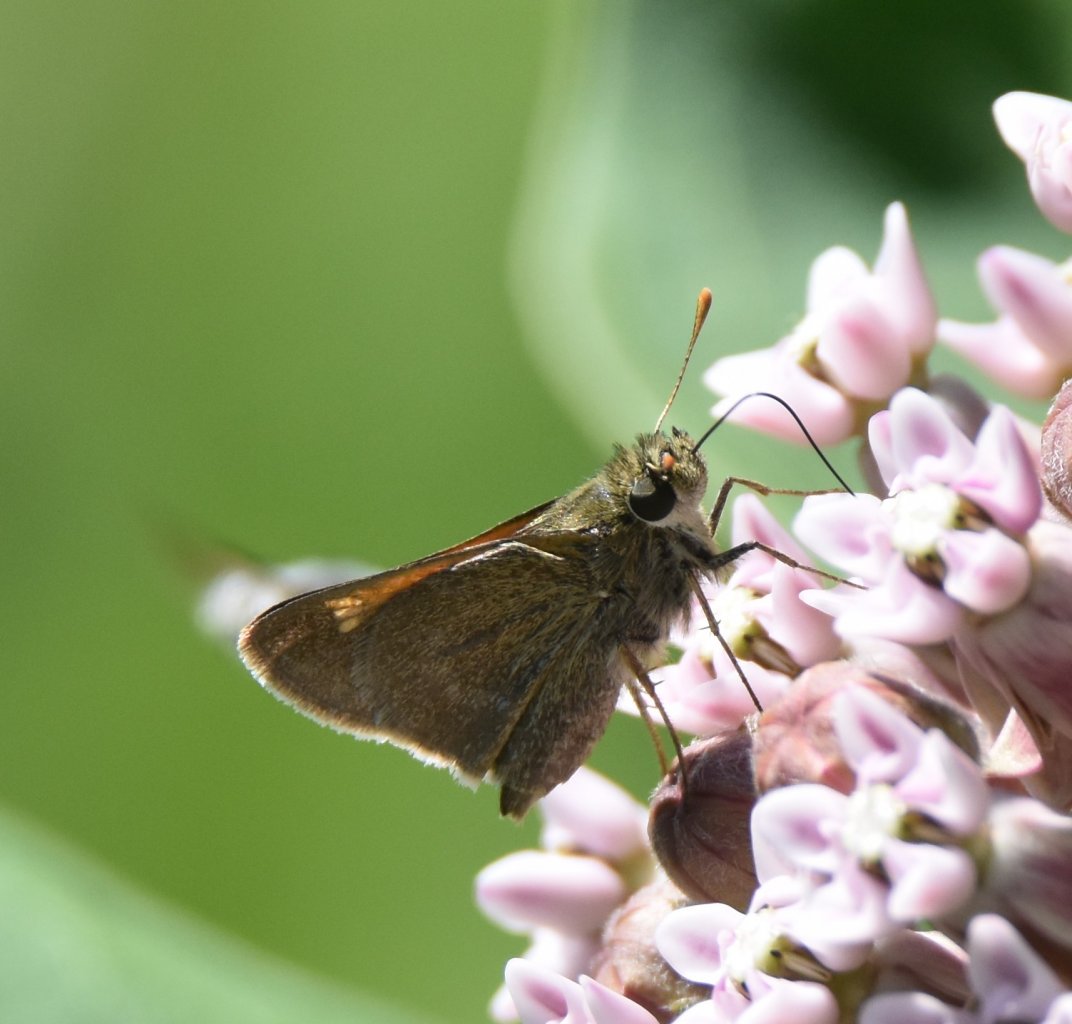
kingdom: Animalia
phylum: Arthropoda
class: Insecta
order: Lepidoptera
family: Hesperiidae
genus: Polites
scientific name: Polites themistocles
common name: Tawny-edged Skipper
